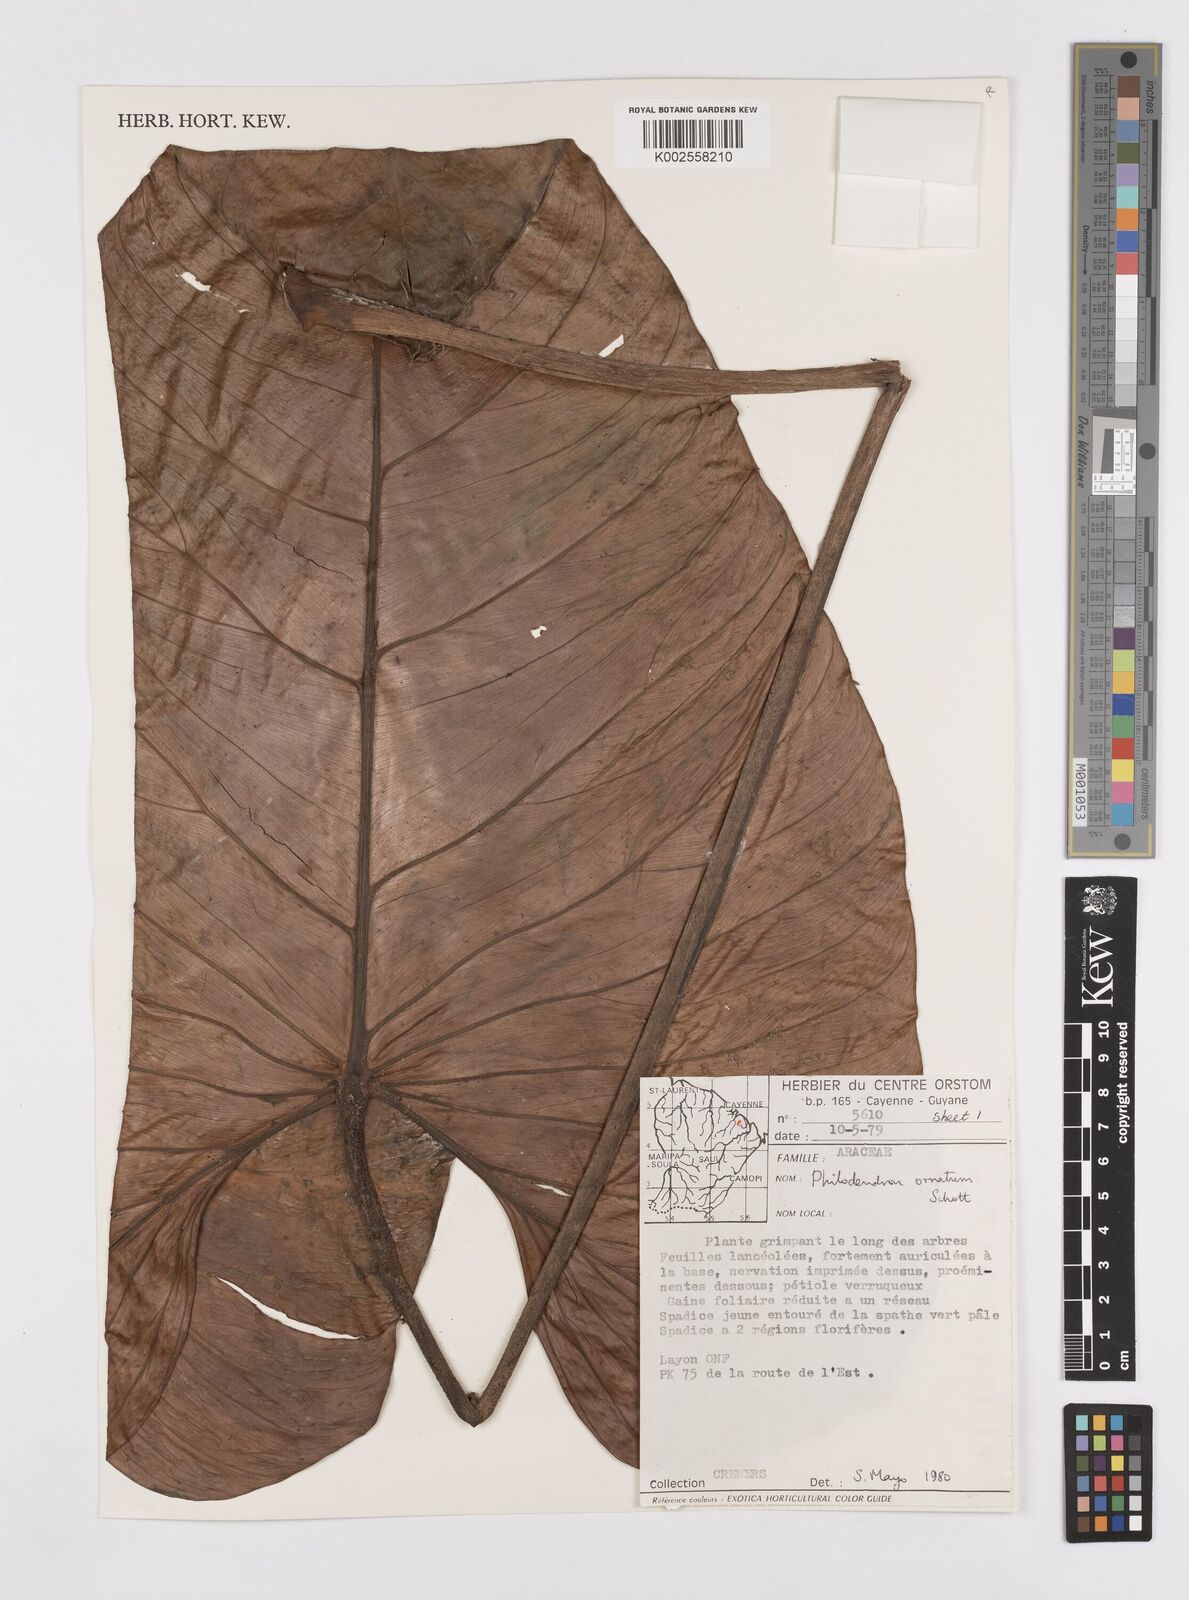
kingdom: Plantae
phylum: Tracheophyta
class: Liliopsida
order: Alismatales
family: Araceae
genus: Philodendron
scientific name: Philodendron ornatum
